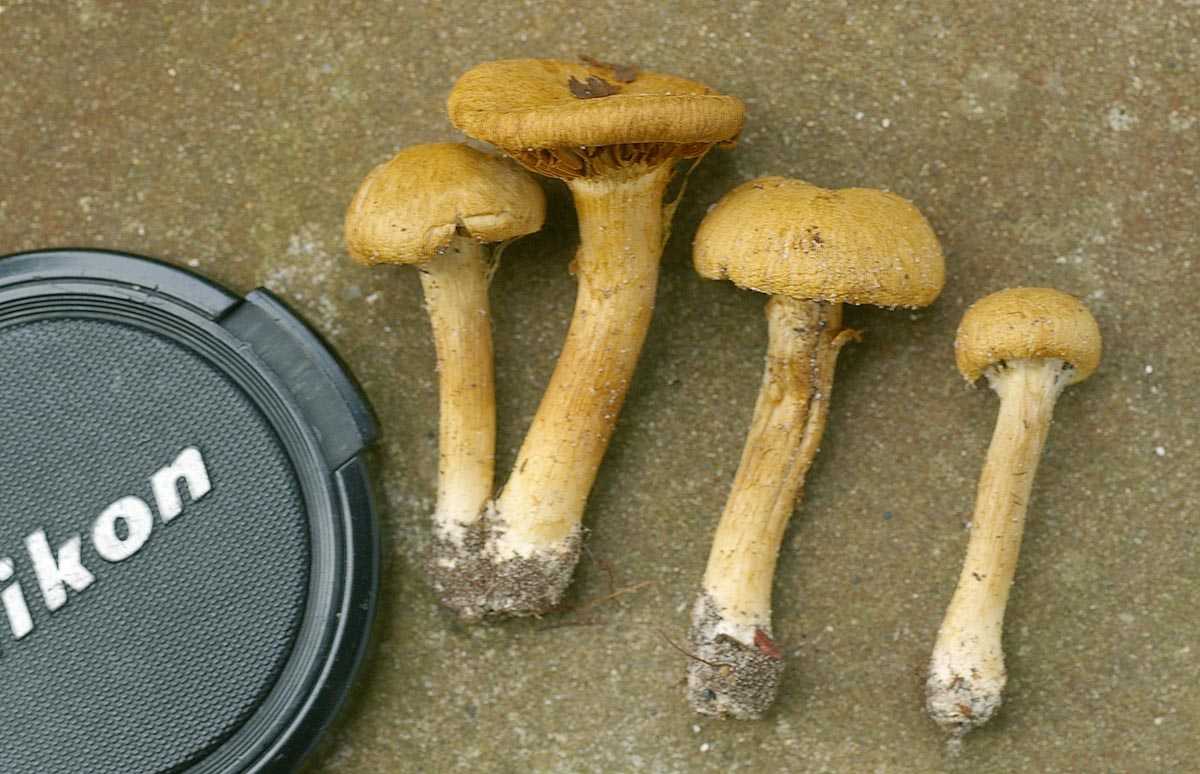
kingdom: Fungi
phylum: Basidiomycota
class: Agaricomycetes
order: Agaricales
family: Inocybaceae
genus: Inocybe
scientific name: Inocybe dulcamara
